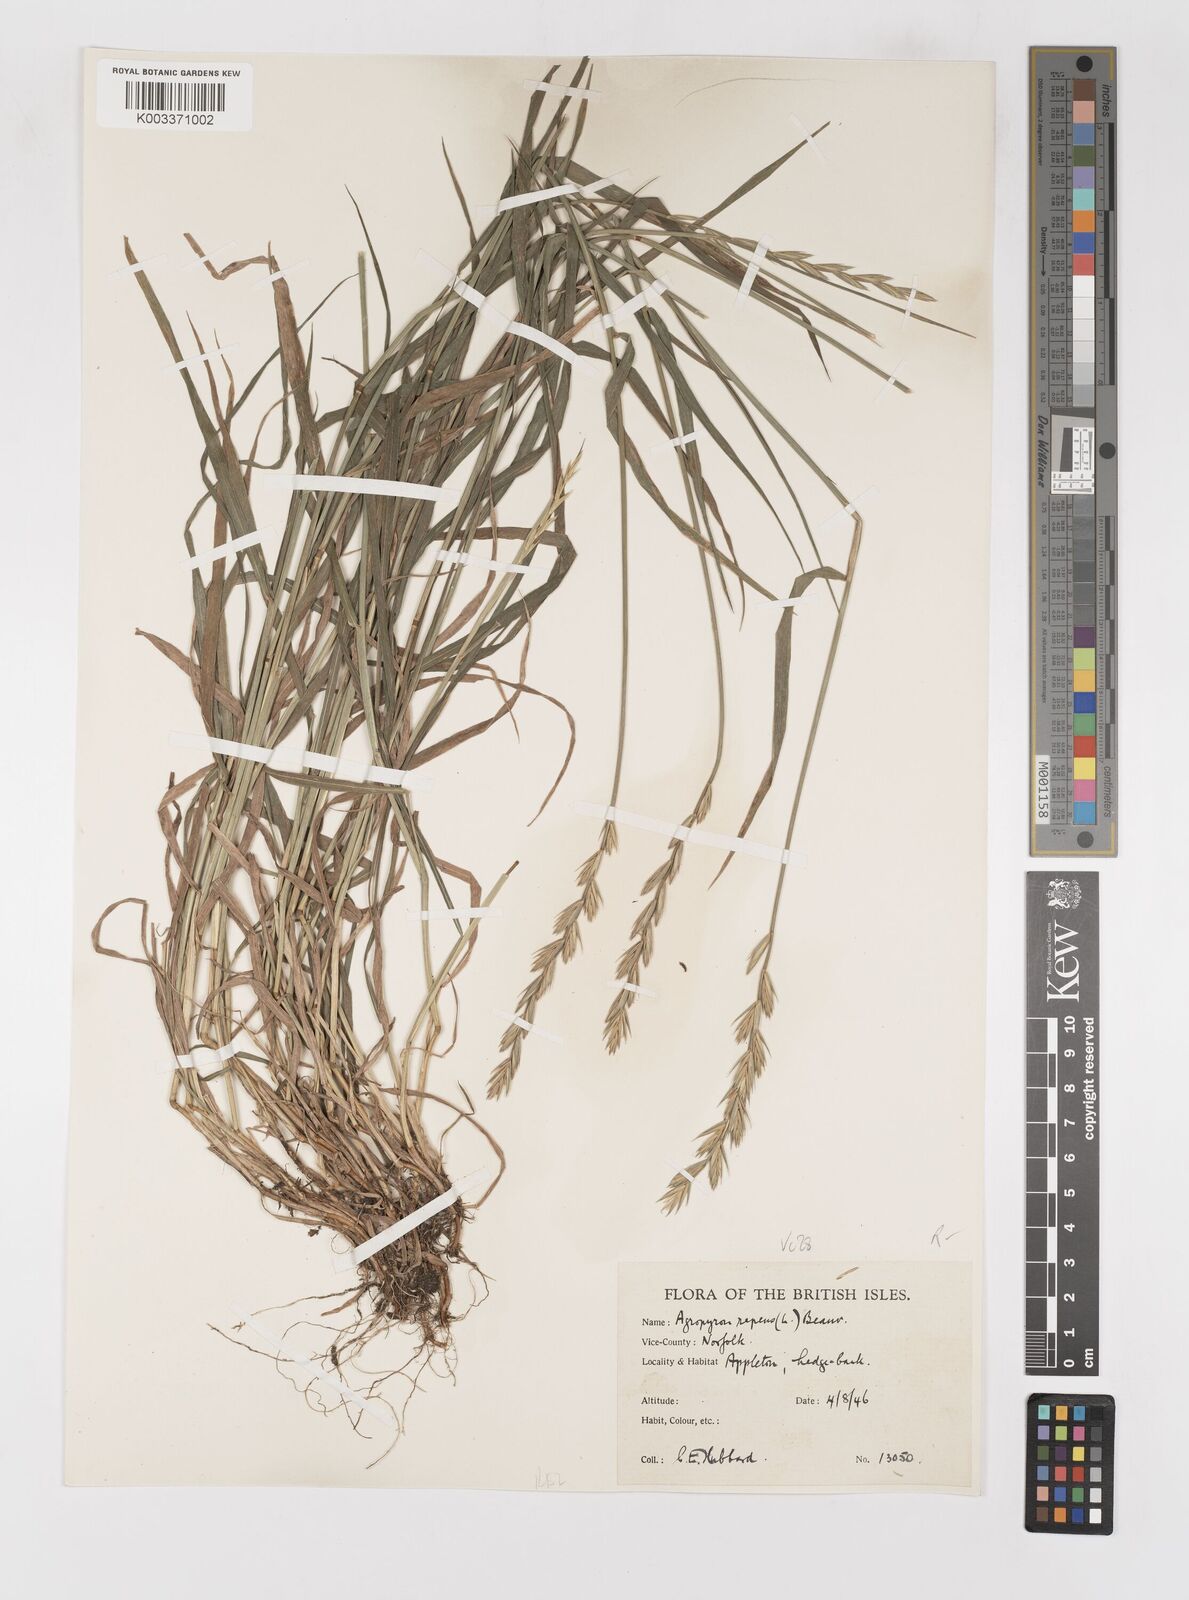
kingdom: Plantae
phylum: Tracheophyta
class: Liliopsida
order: Poales
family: Poaceae
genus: Elymus
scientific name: Elymus repens
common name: Quackgrass
